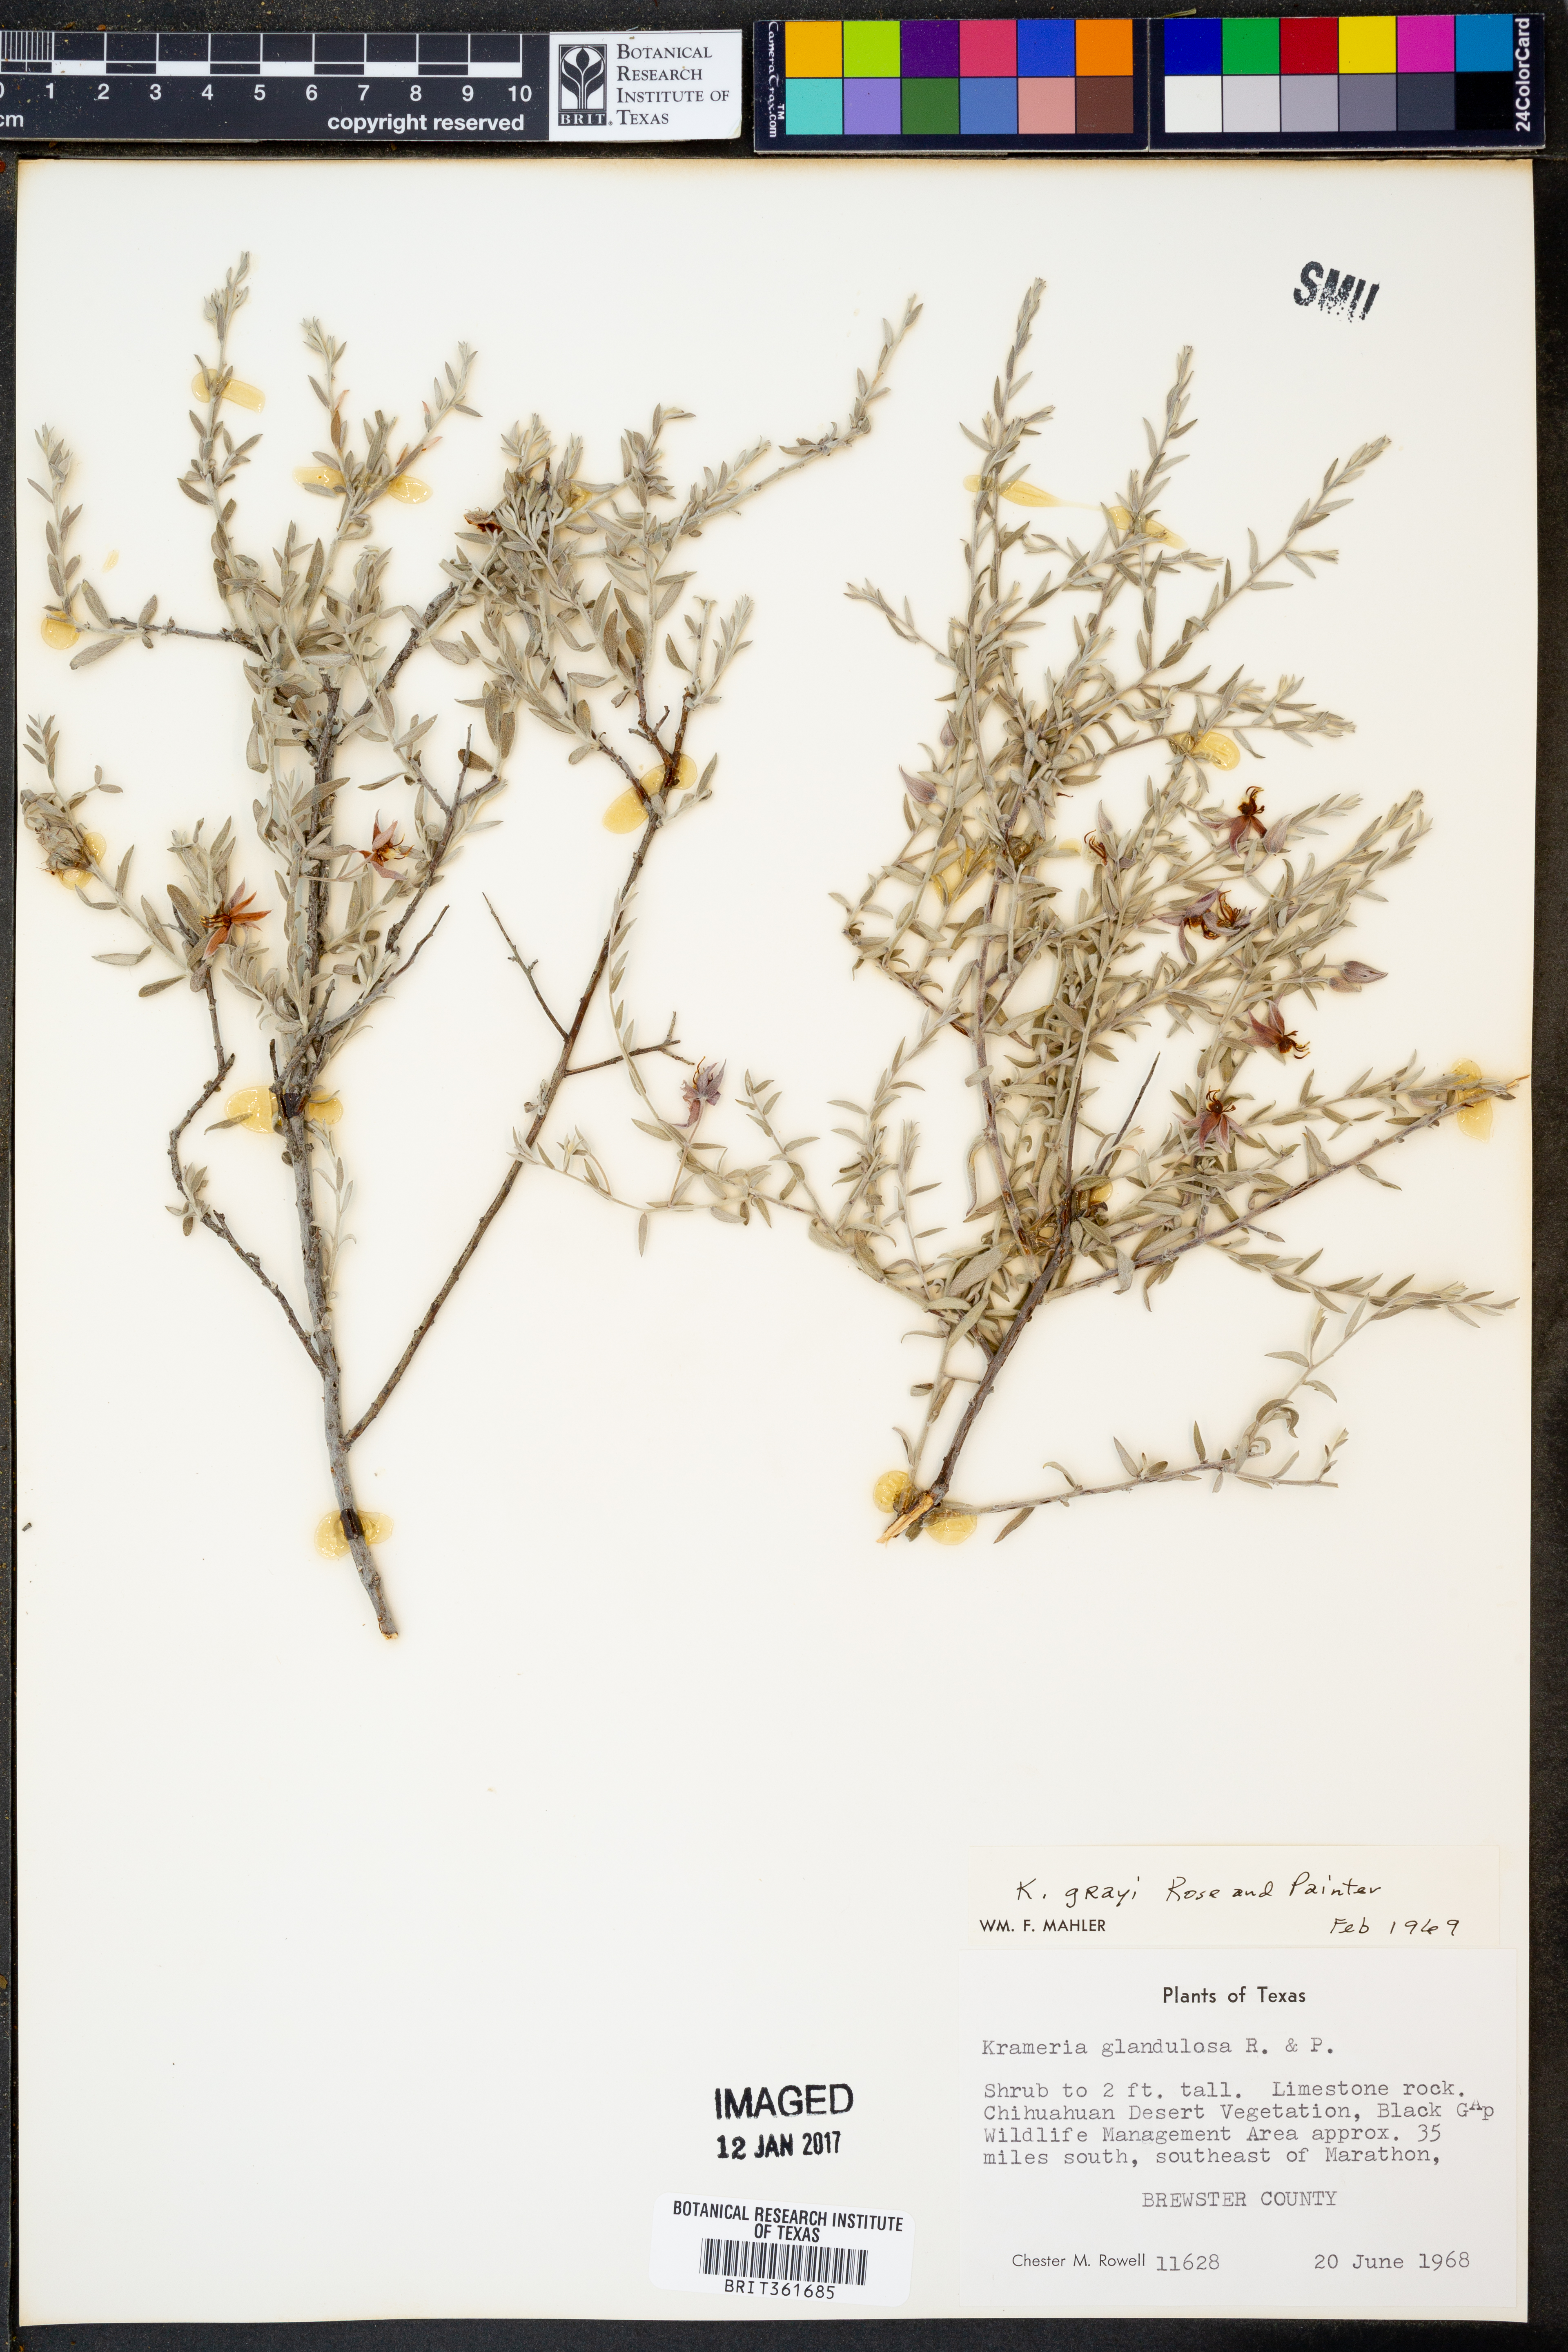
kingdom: Plantae
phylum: Tracheophyta
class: Magnoliopsida
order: Zygophyllales
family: Krameriaceae
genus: Krameria
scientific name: Krameria bicolor
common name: White ratany
